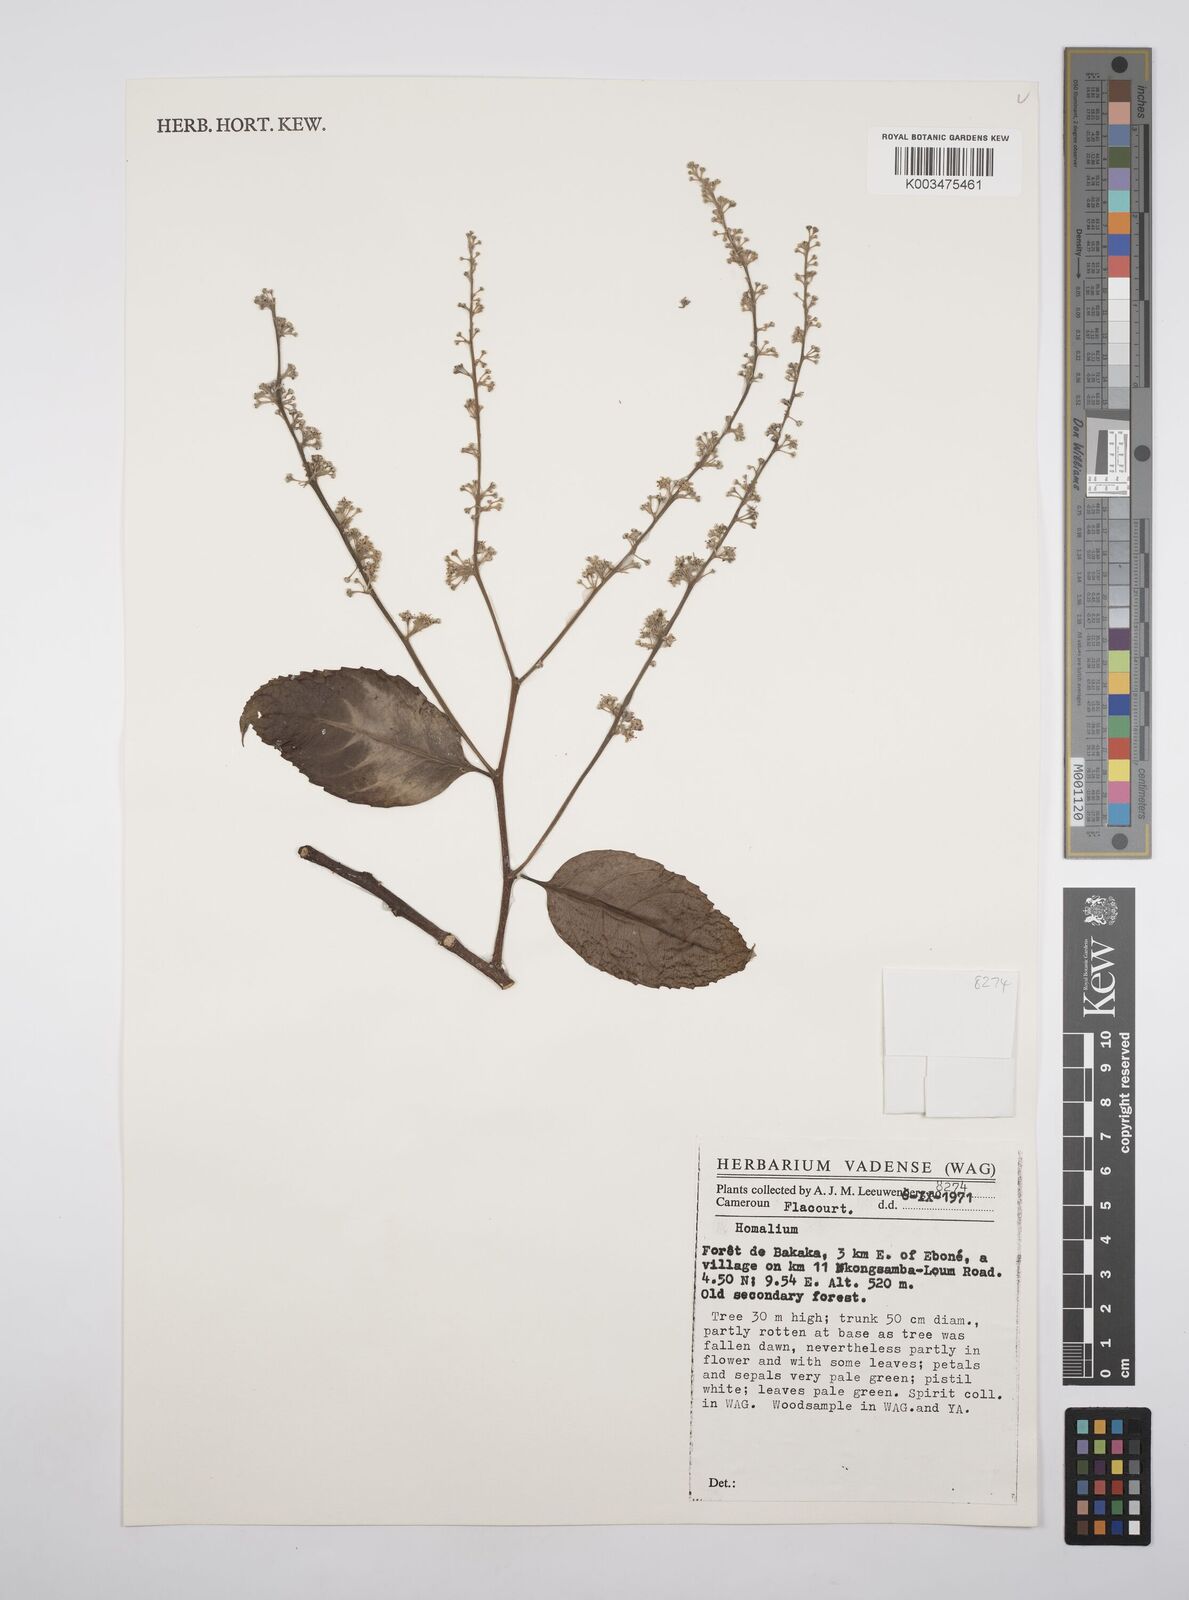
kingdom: Plantae
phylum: Tracheophyta
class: Magnoliopsida
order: Malpighiales
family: Salicaceae
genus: Homalium
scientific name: Homalium
